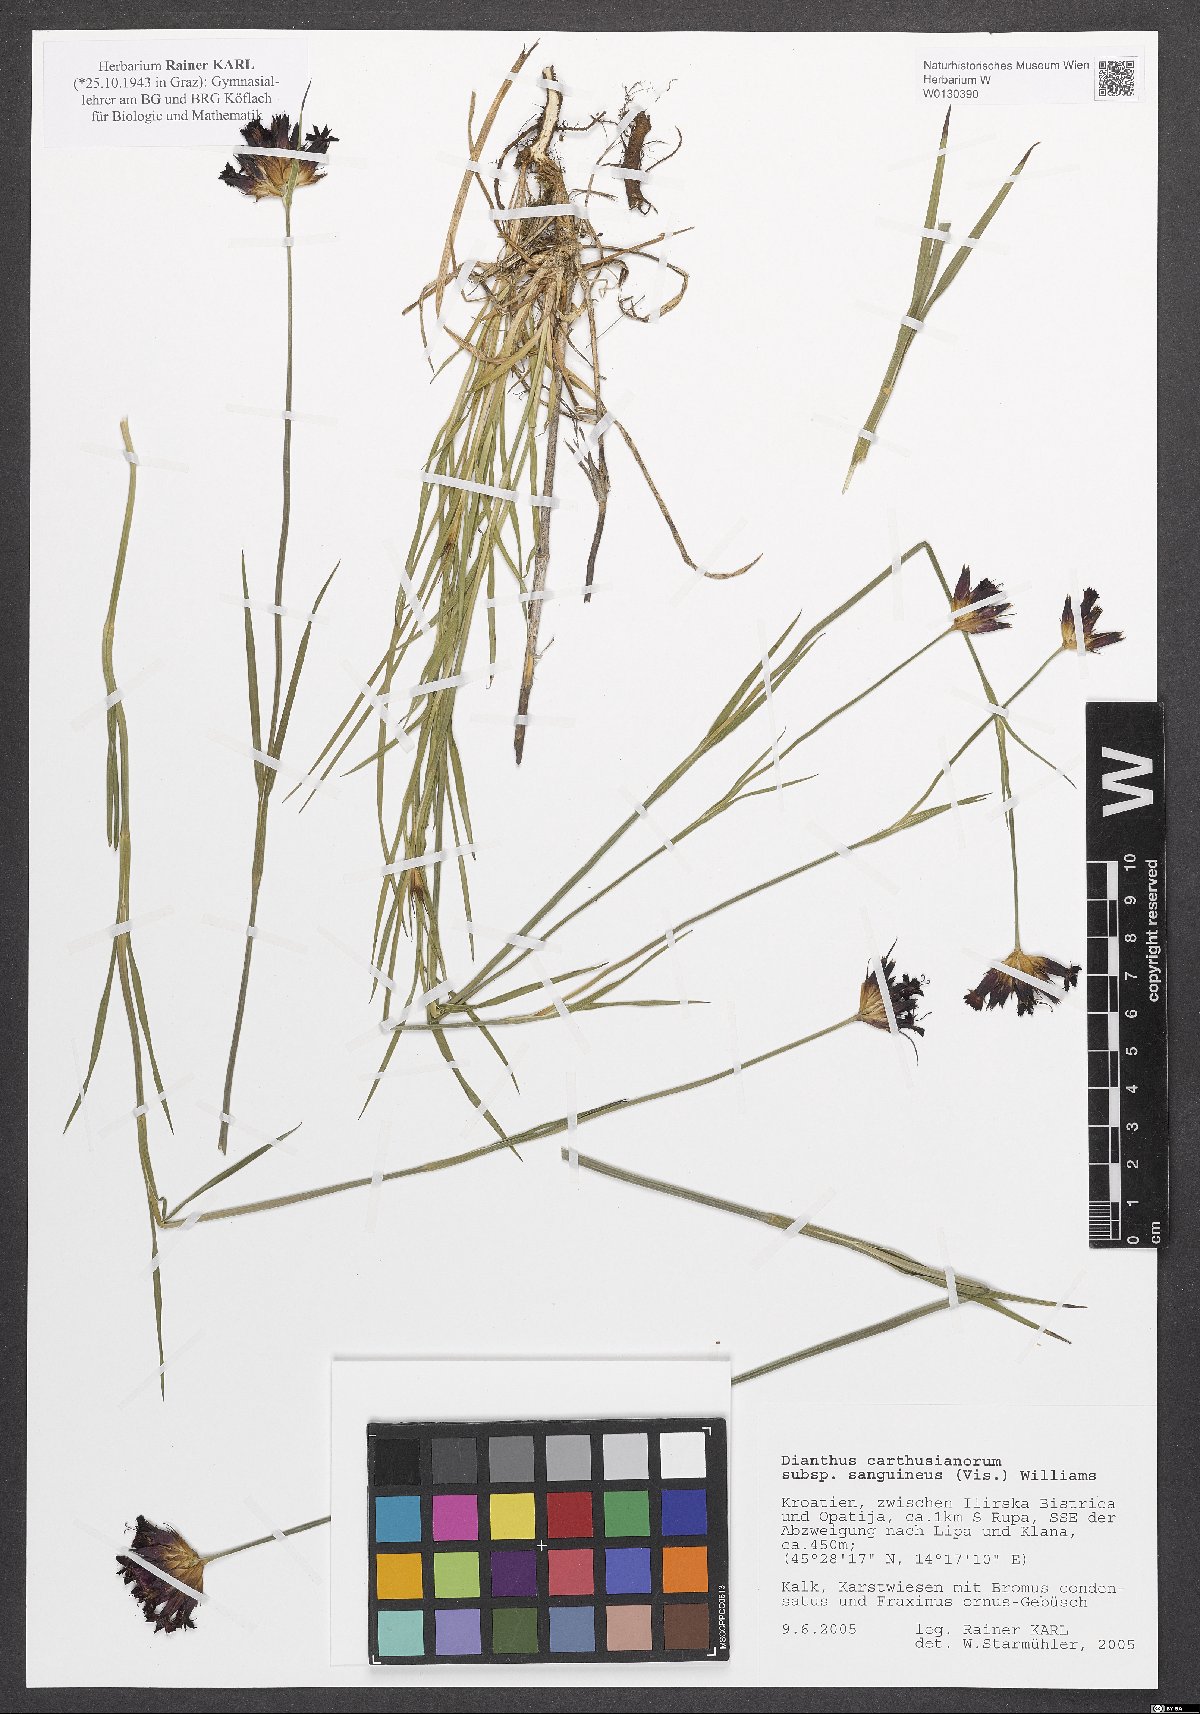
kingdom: Plantae
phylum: Tracheophyta
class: Magnoliopsida
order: Caryophyllales
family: Caryophyllaceae
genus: Dianthus
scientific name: Dianthus carthusianorum
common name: Carthusian pink
